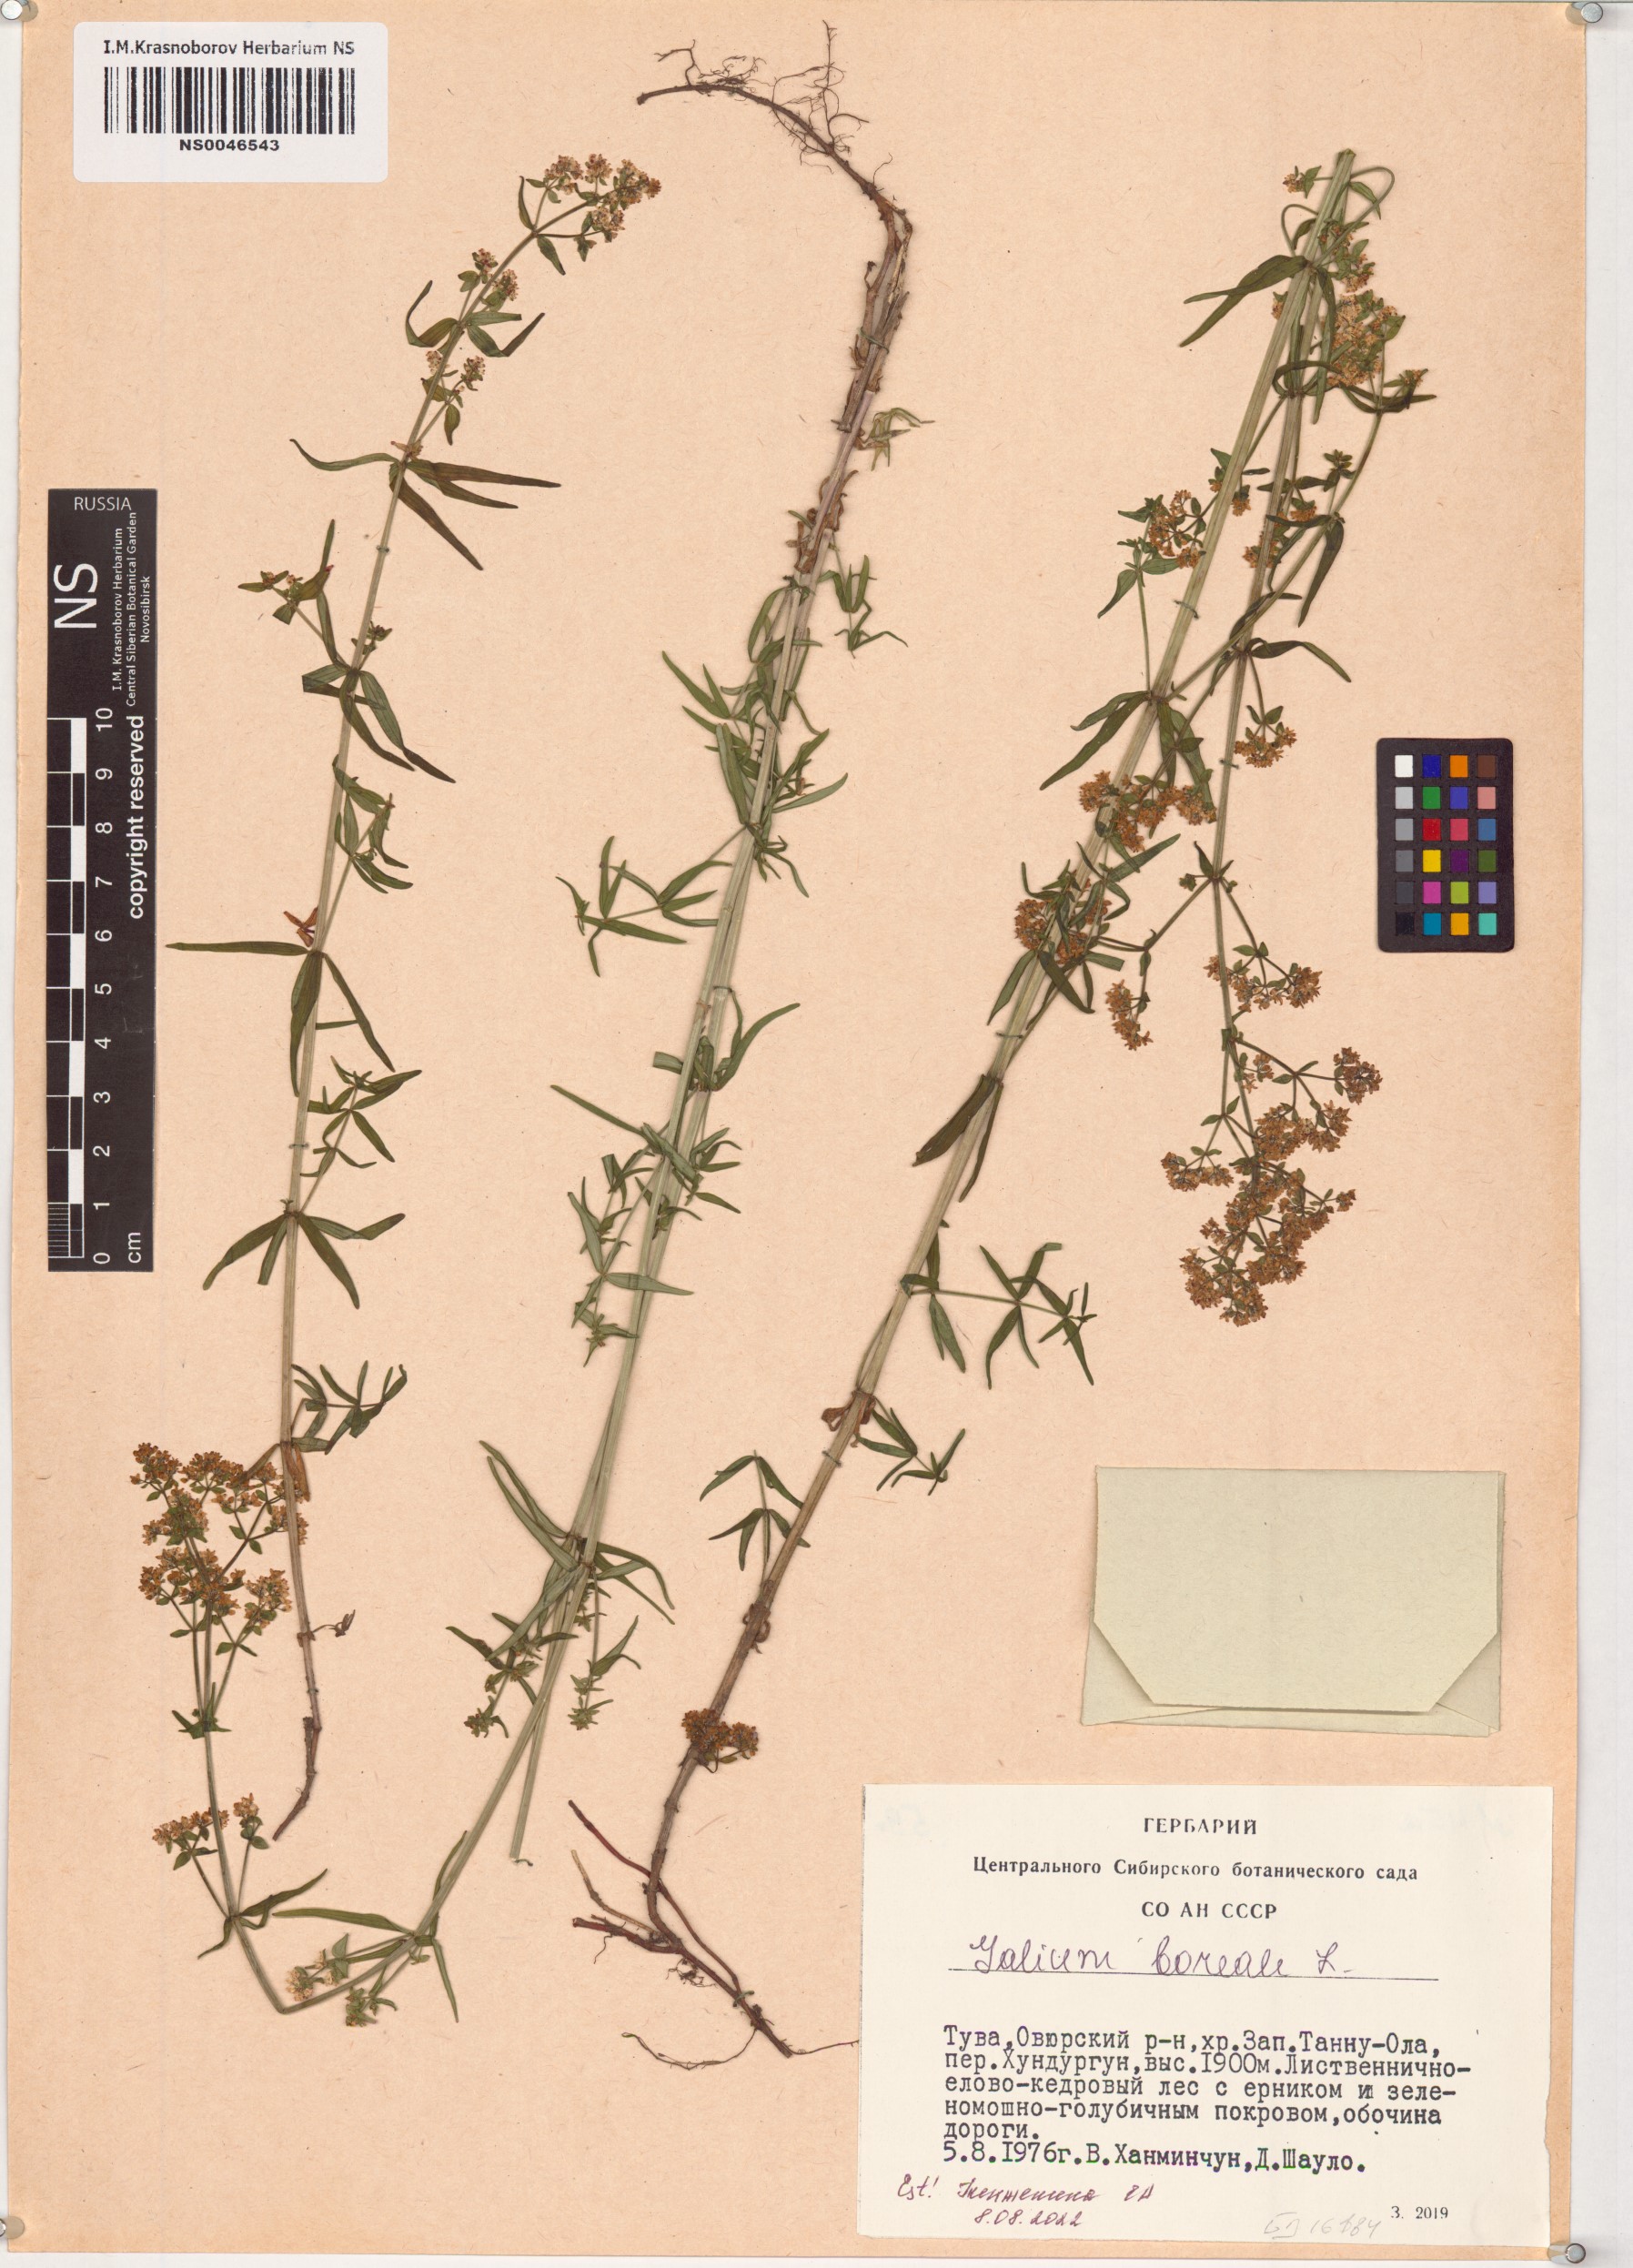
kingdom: Plantae
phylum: Tracheophyta
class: Magnoliopsida
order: Gentianales
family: Rubiaceae
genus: Galium
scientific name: Galium boreale
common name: Northern bedstraw
